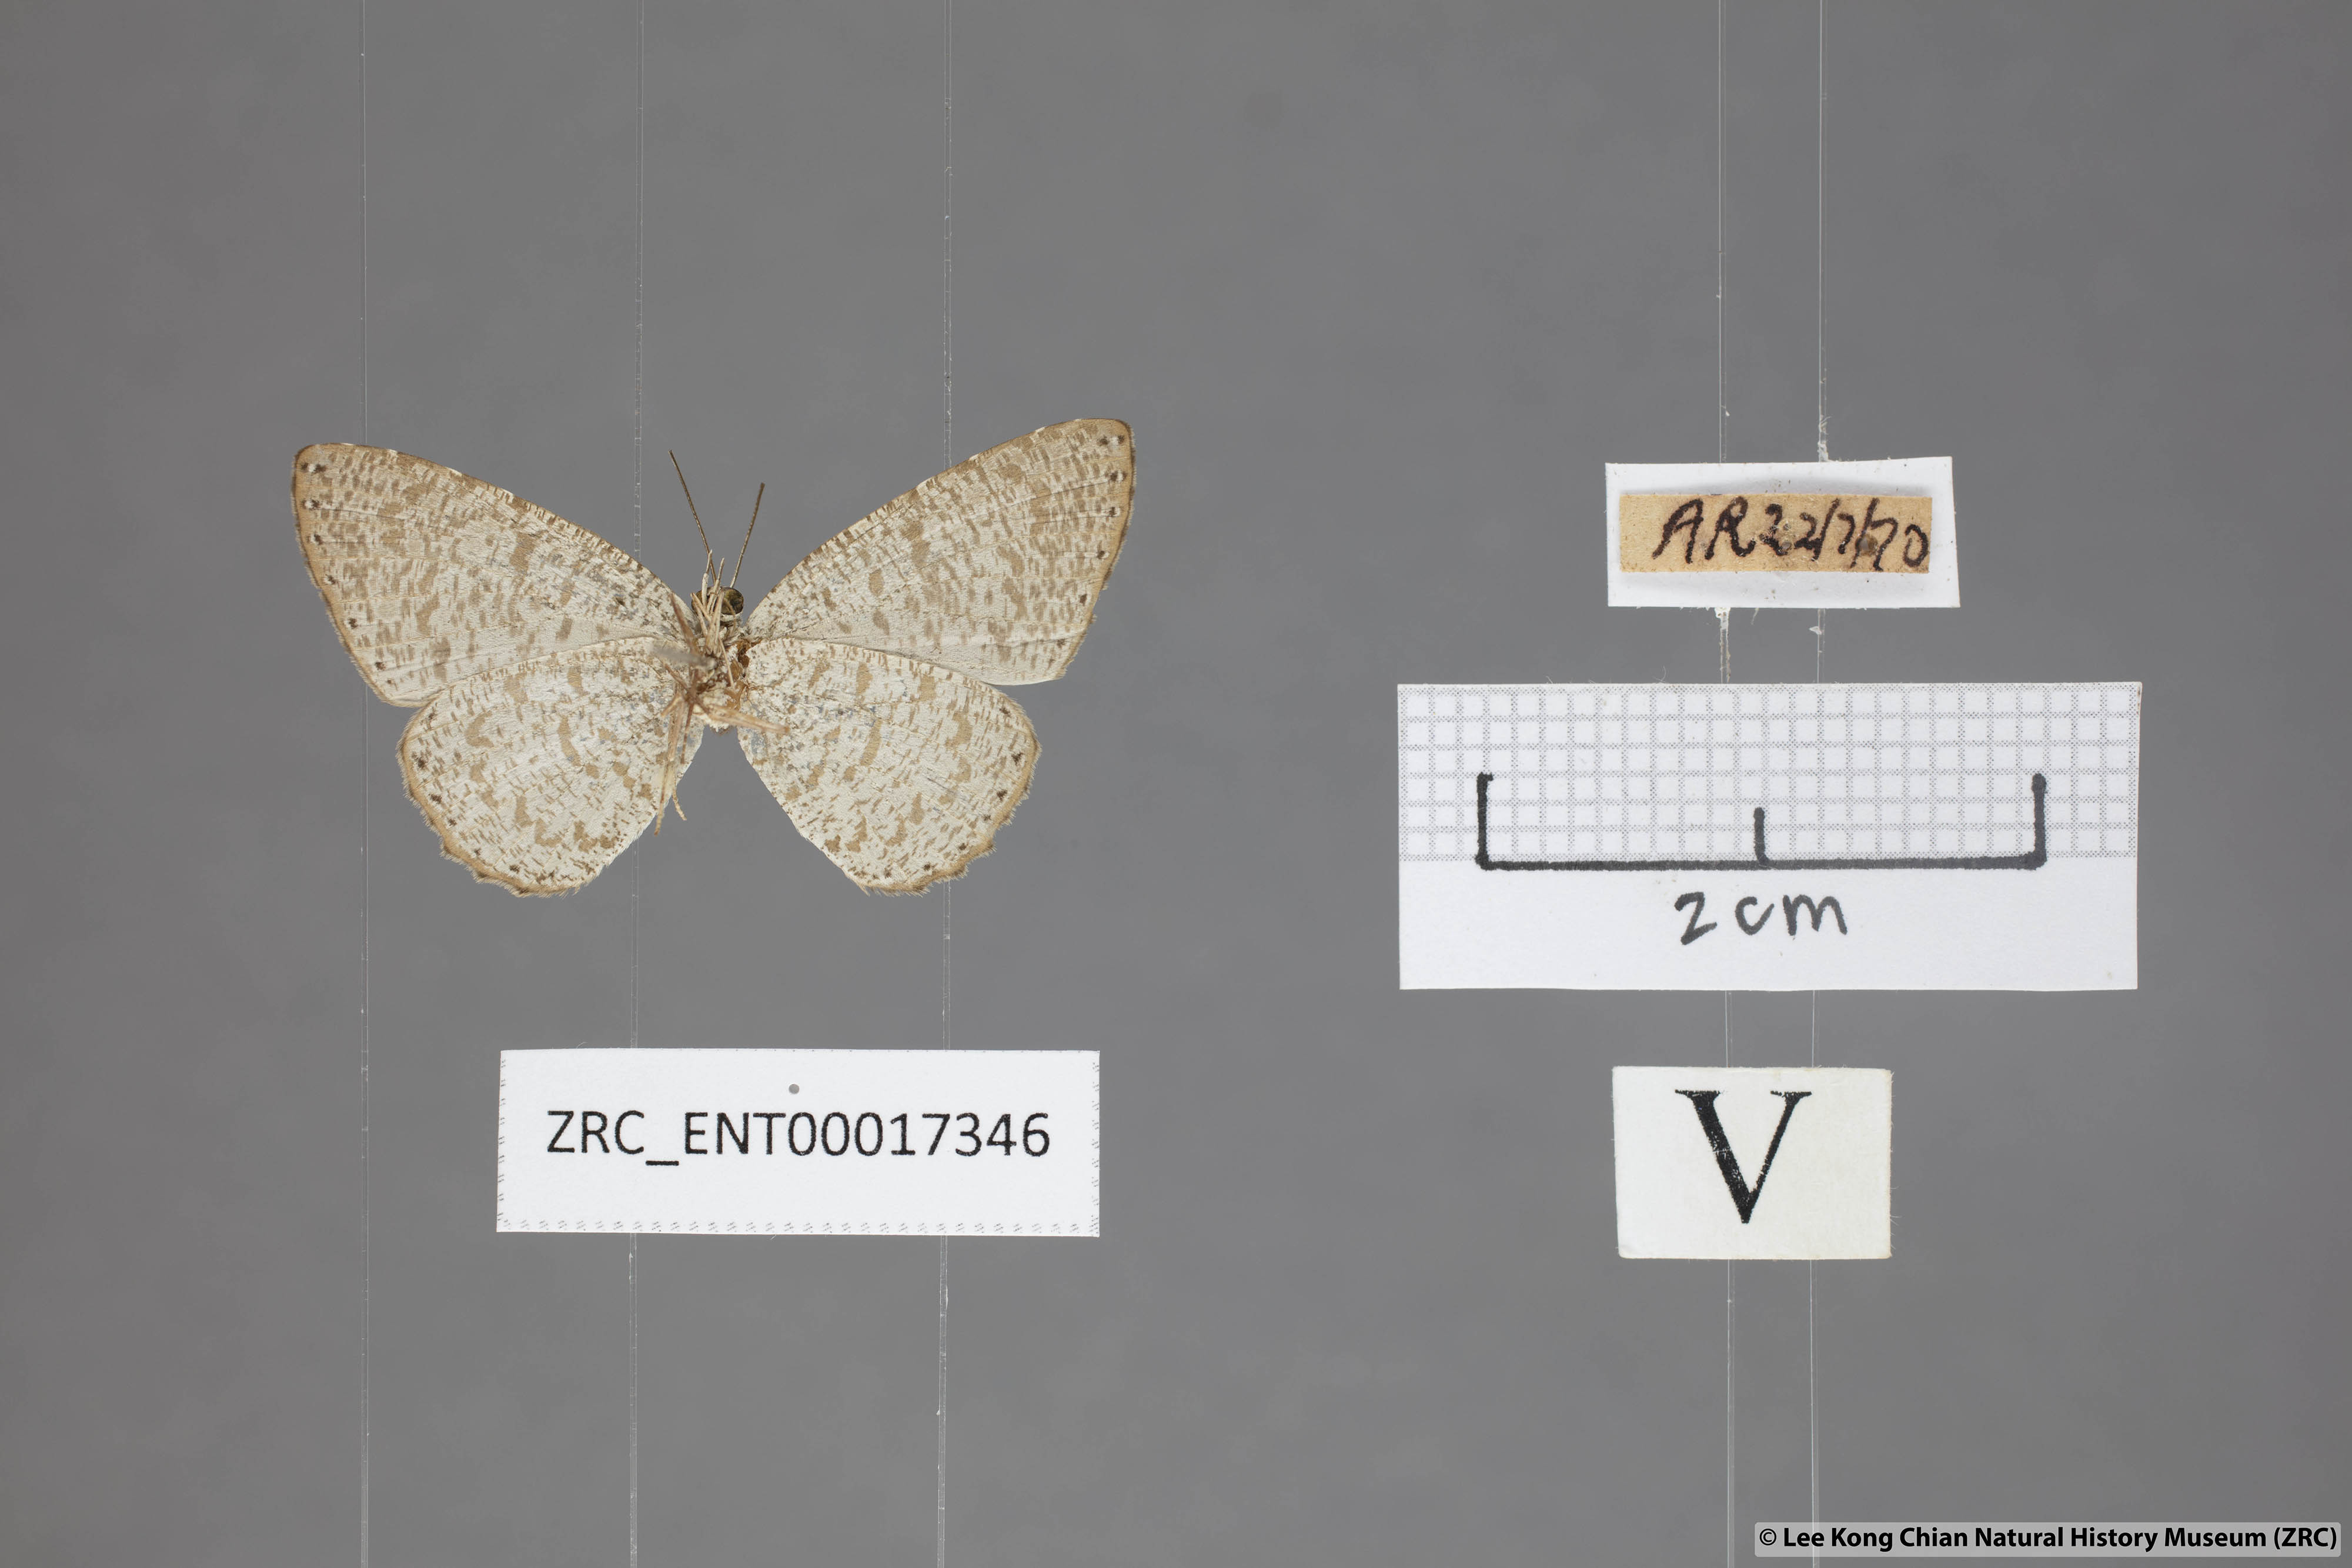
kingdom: Animalia
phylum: Arthropoda
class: Insecta
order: Lepidoptera
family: Lycaenidae
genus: Allotinus
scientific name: Allotinus sarastes
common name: Peninsular darkie
